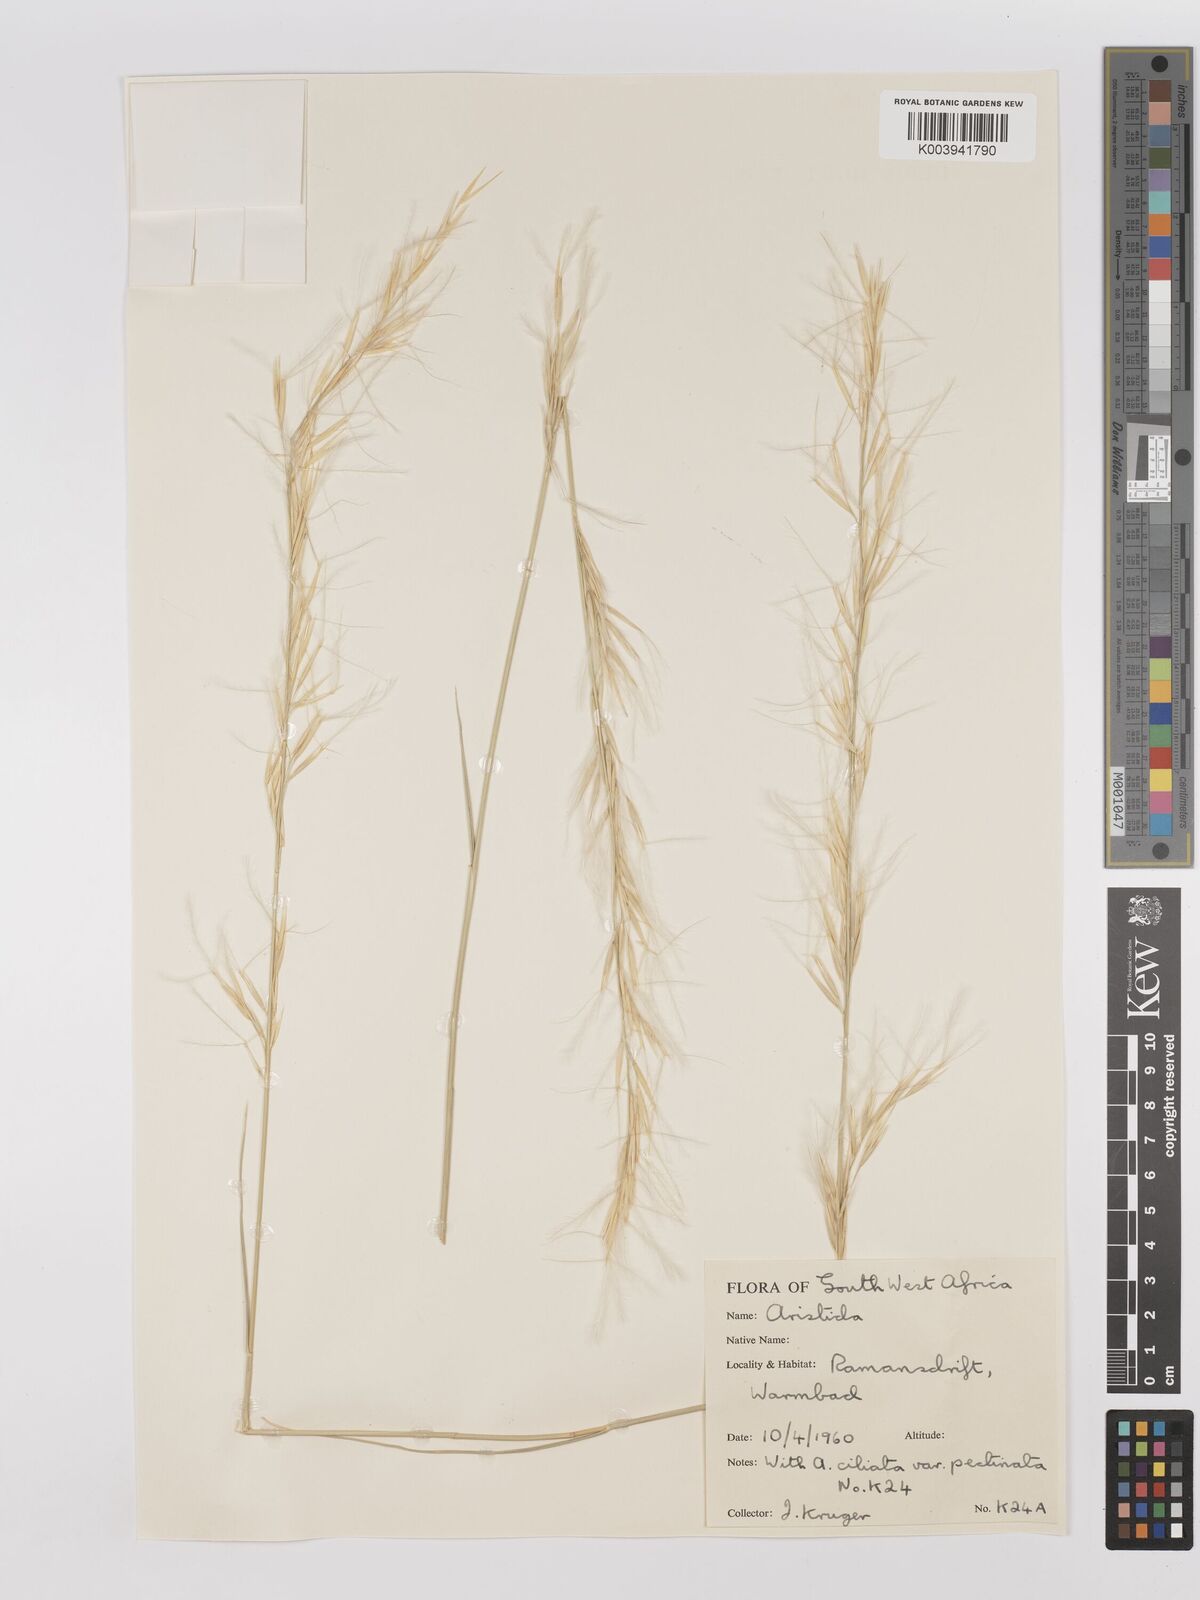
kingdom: Plantae
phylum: Tracheophyta
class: Liliopsida
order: Poales
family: Poaceae
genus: Stipagrostis
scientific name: Stipagrostis namaquensis
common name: River bushman grass
